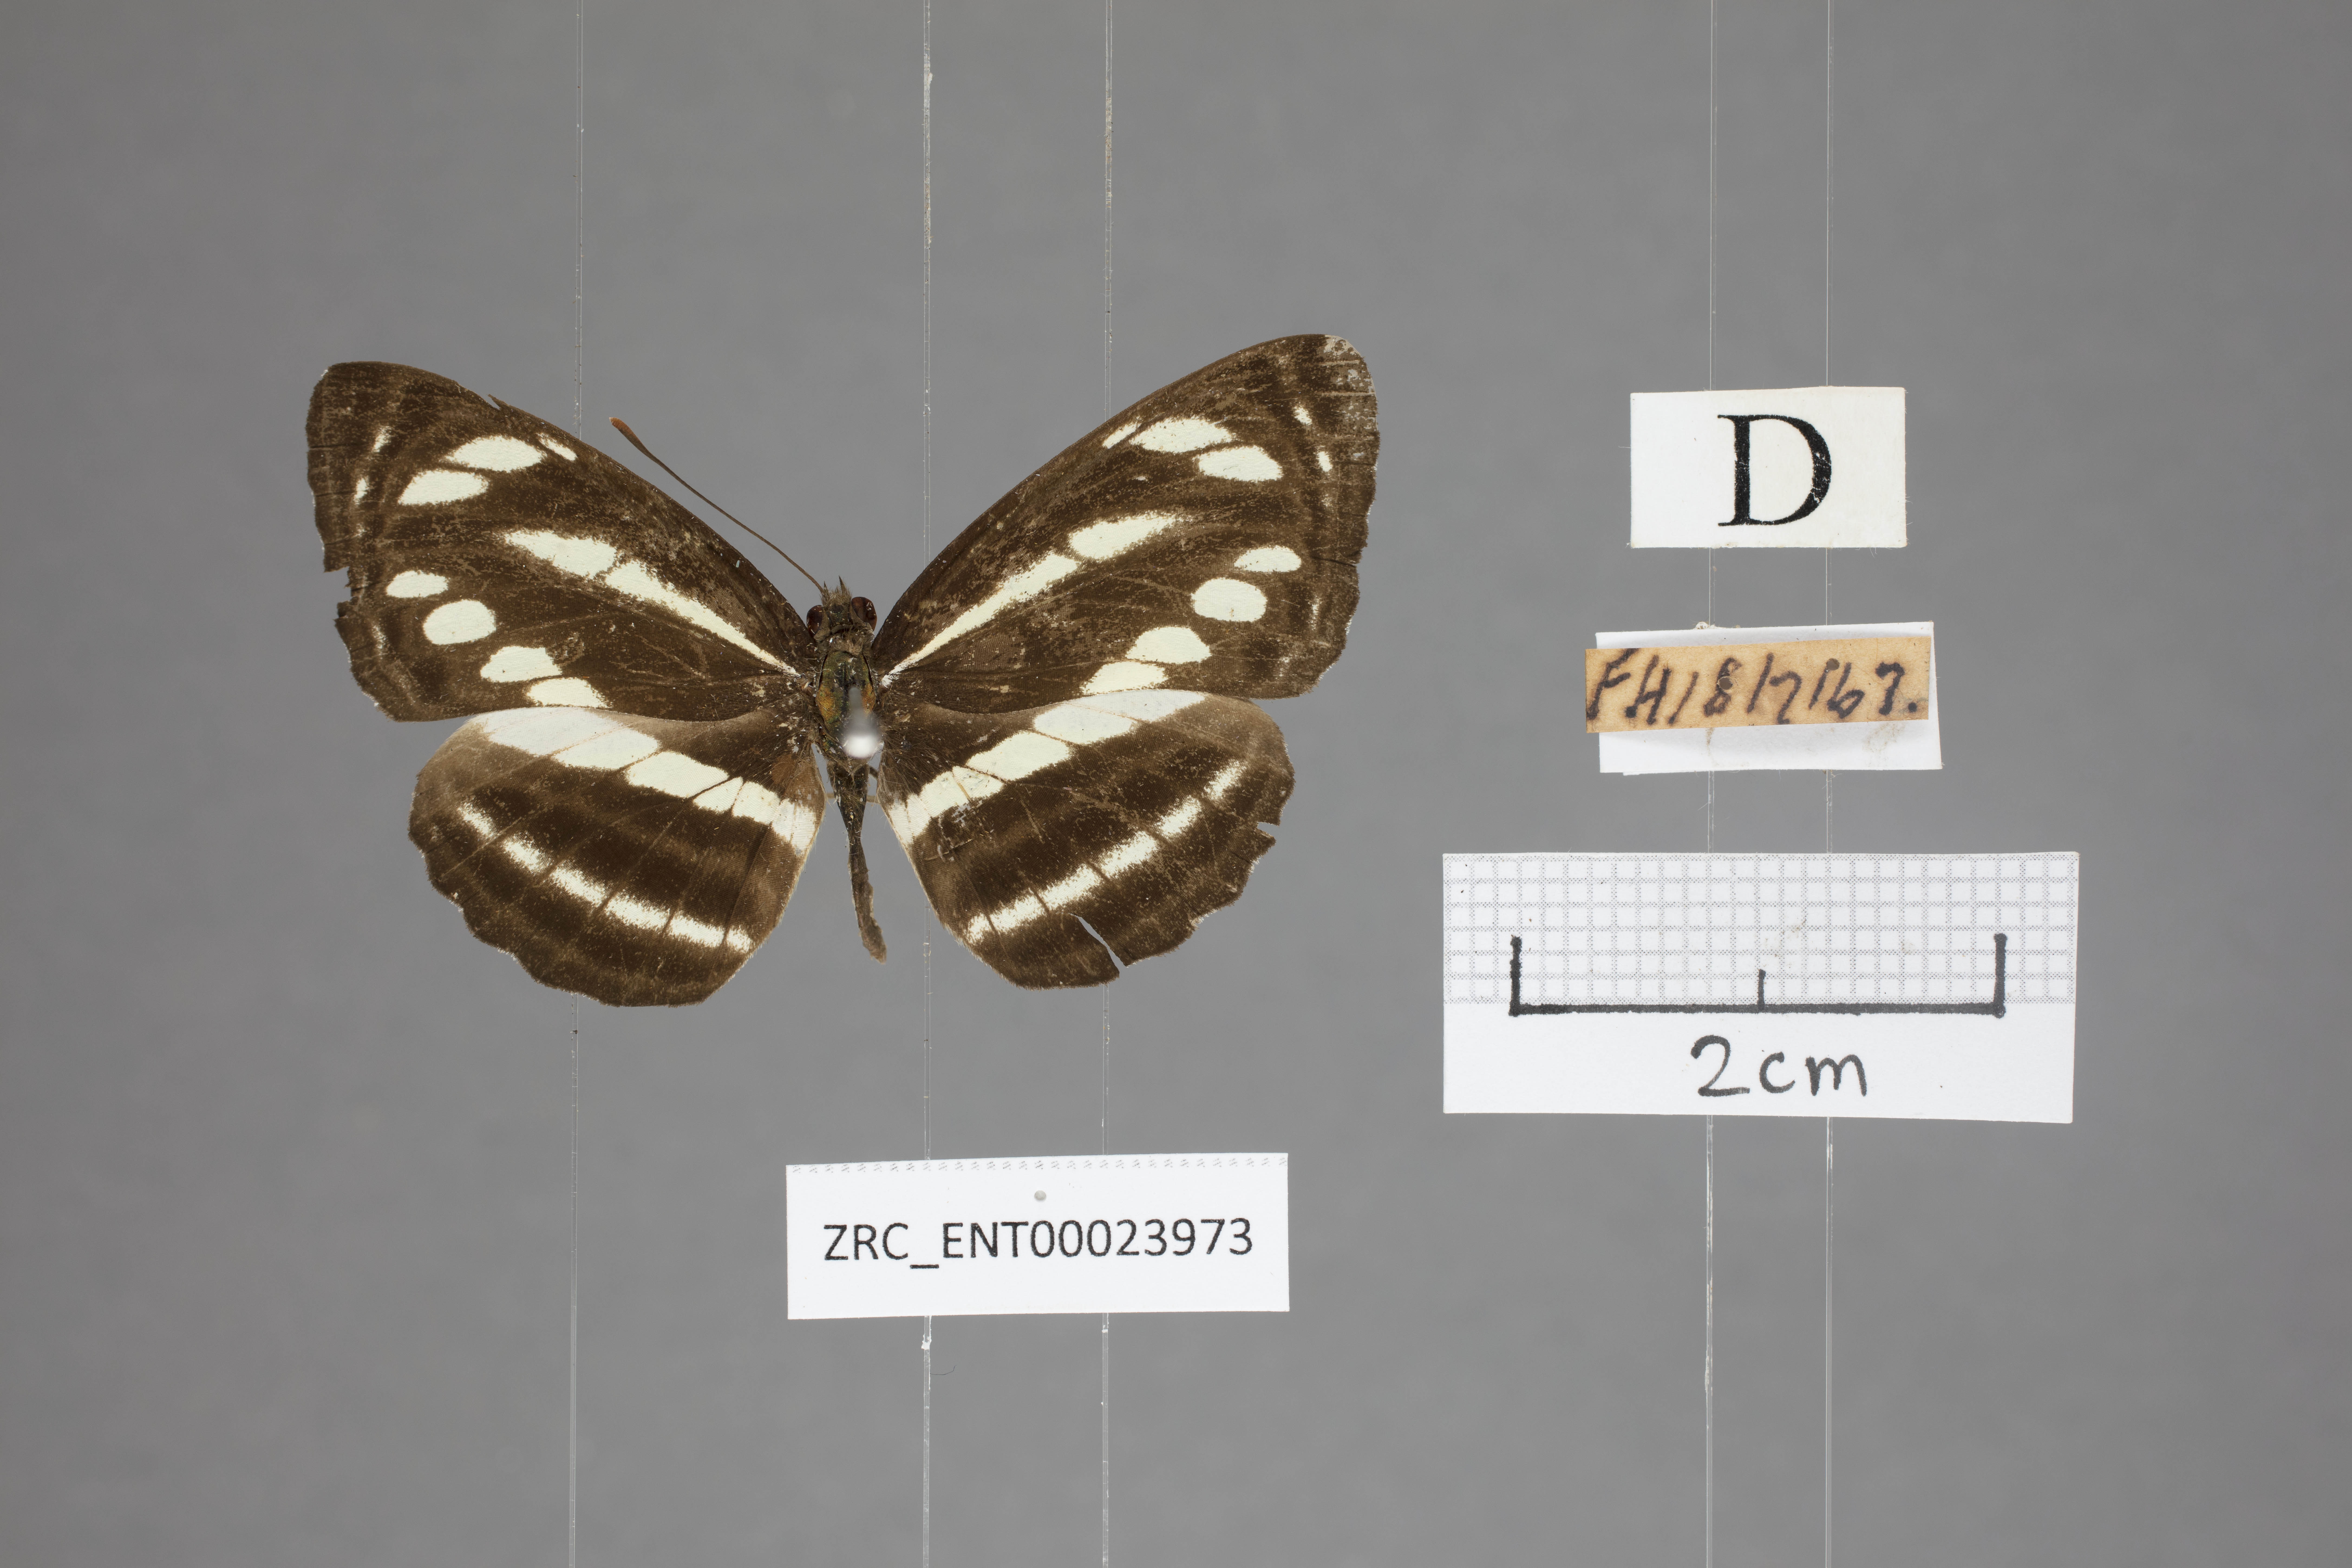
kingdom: Animalia
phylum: Arthropoda
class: Insecta
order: Lepidoptera
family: Nymphalidae
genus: Neptis
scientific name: Neptis clinioides
